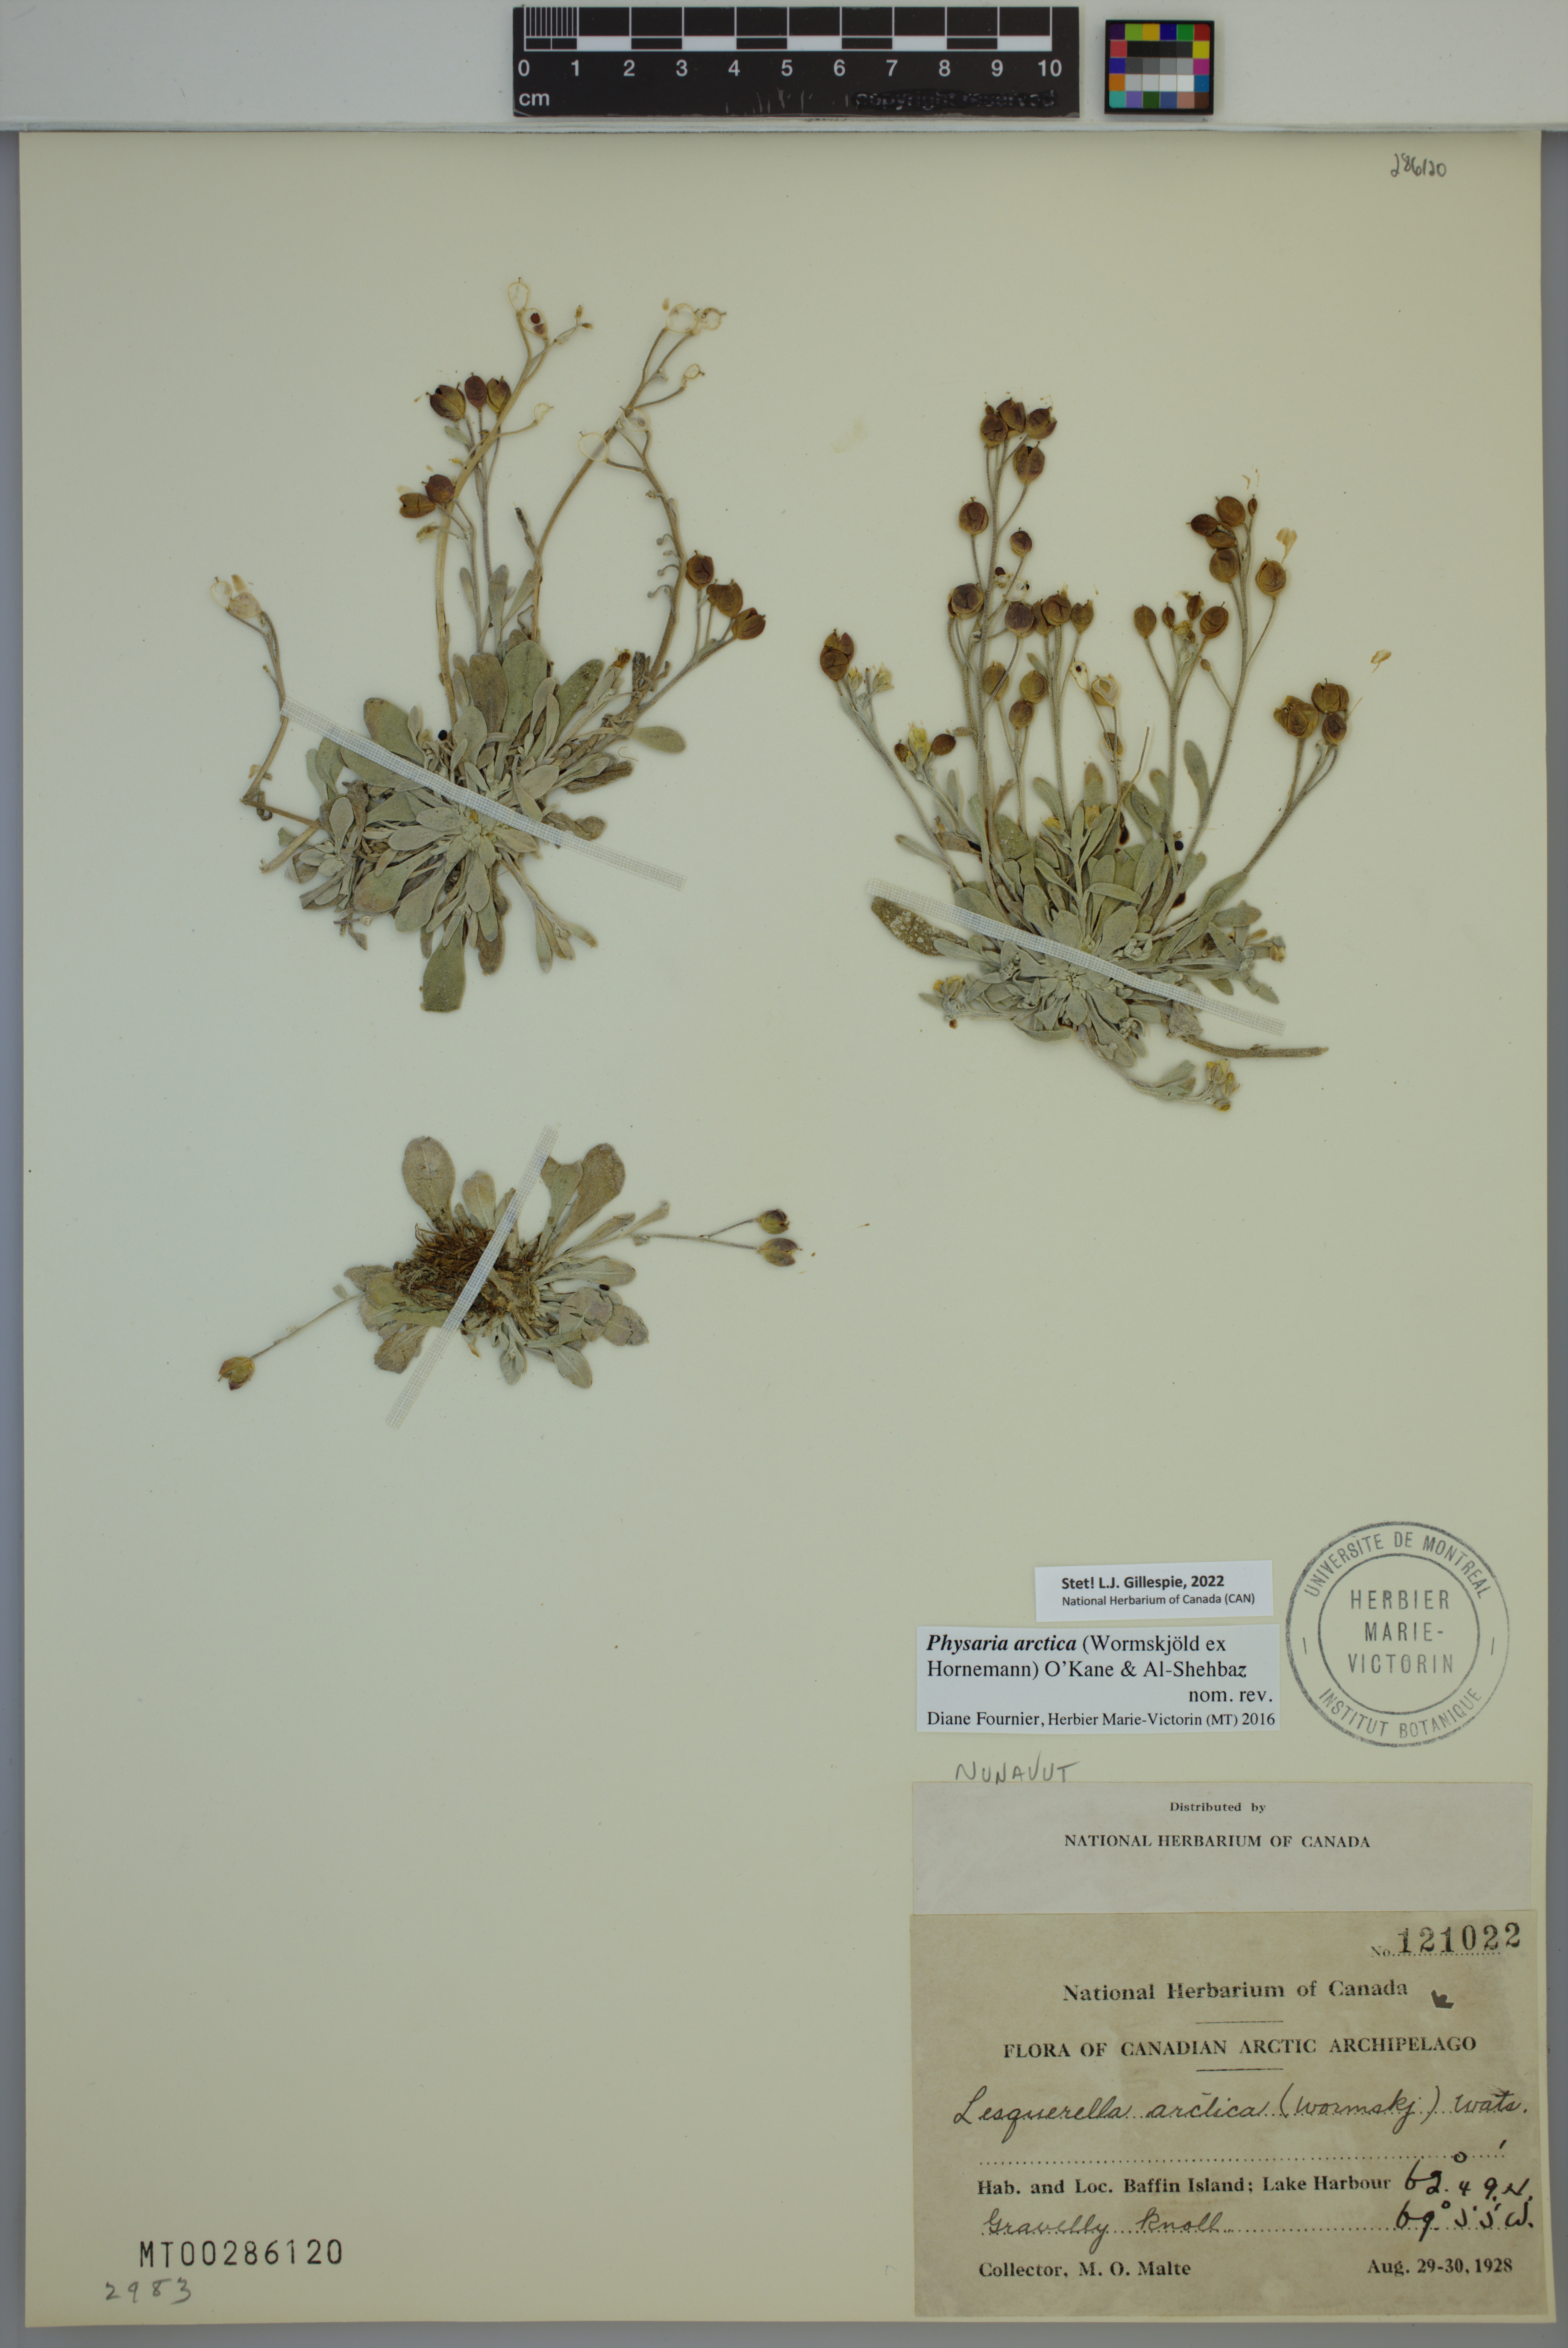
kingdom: Plantae
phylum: Tracheophyta
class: Magnoliopsida
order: Brassicales
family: Brassicaceae
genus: Physaria
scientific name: Physaria arctica
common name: Arctic bladderpod
